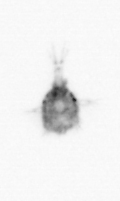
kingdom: Animalia
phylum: Arthropoda
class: Copepoda
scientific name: Copepoda
